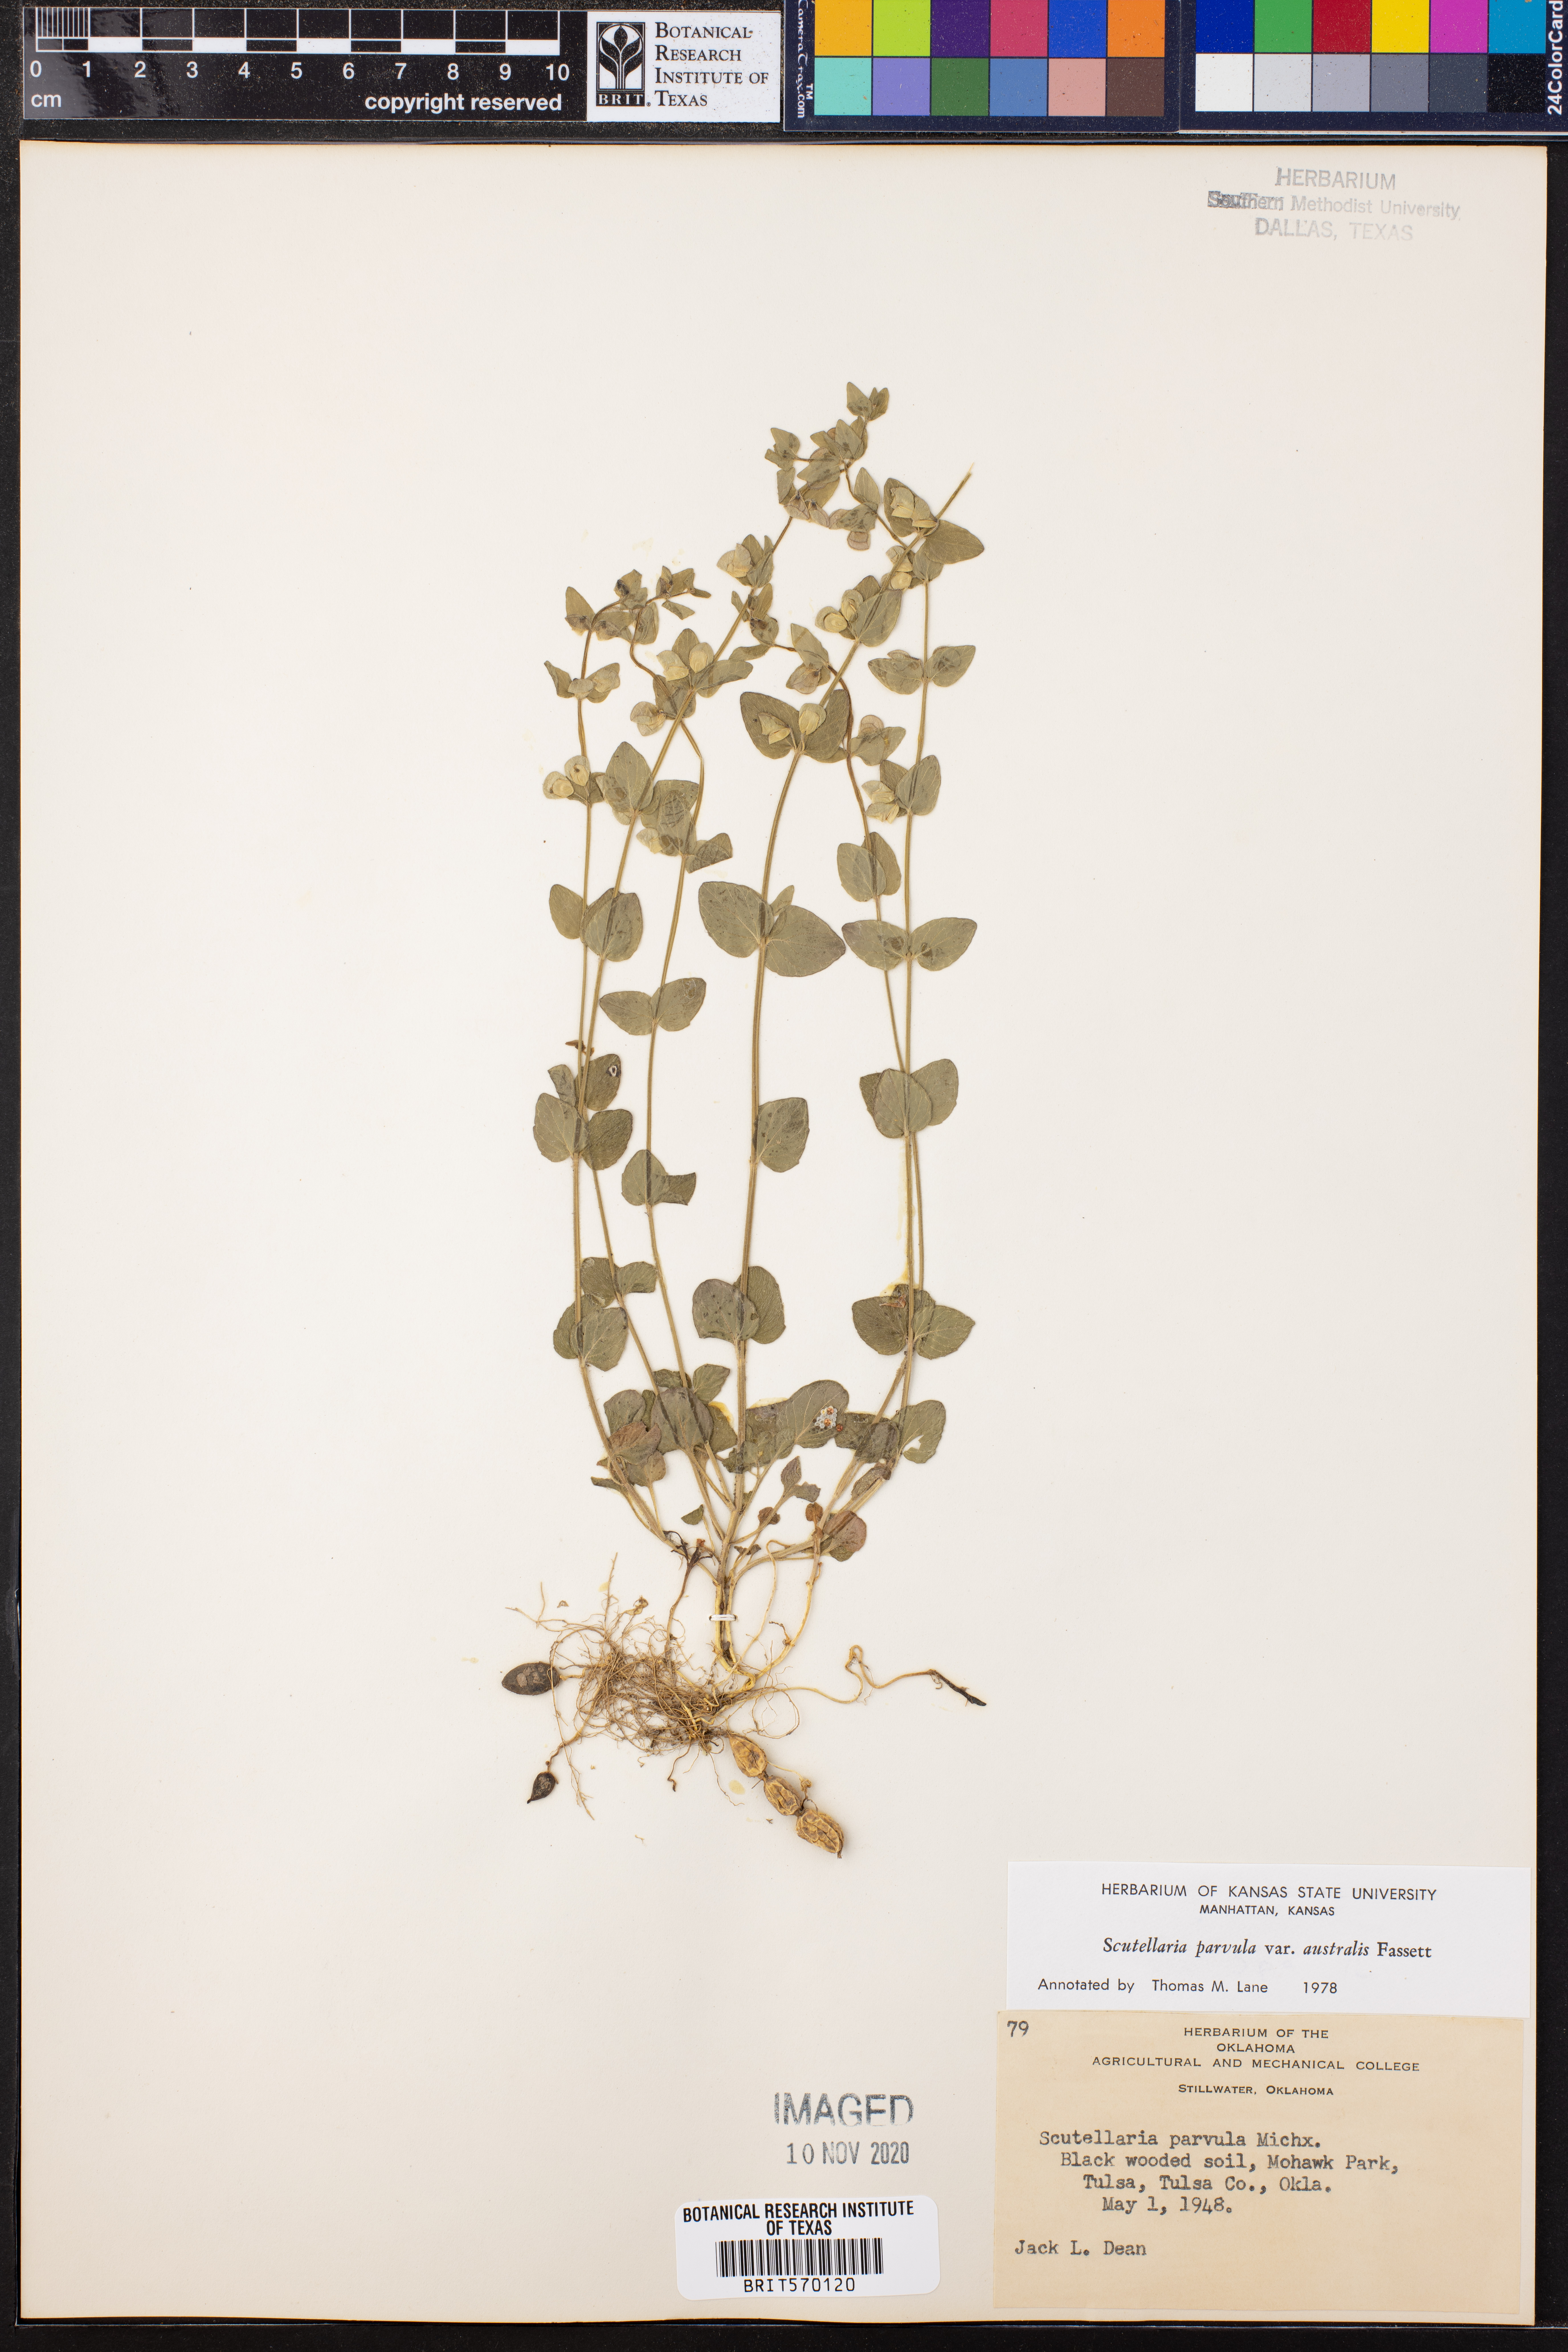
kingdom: Plantae
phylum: Tracheophyta
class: Magnoliopsida
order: Lamiales
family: Lamiaceae
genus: Scutellaria
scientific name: Scutellaria parvula
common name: Little scullcap
